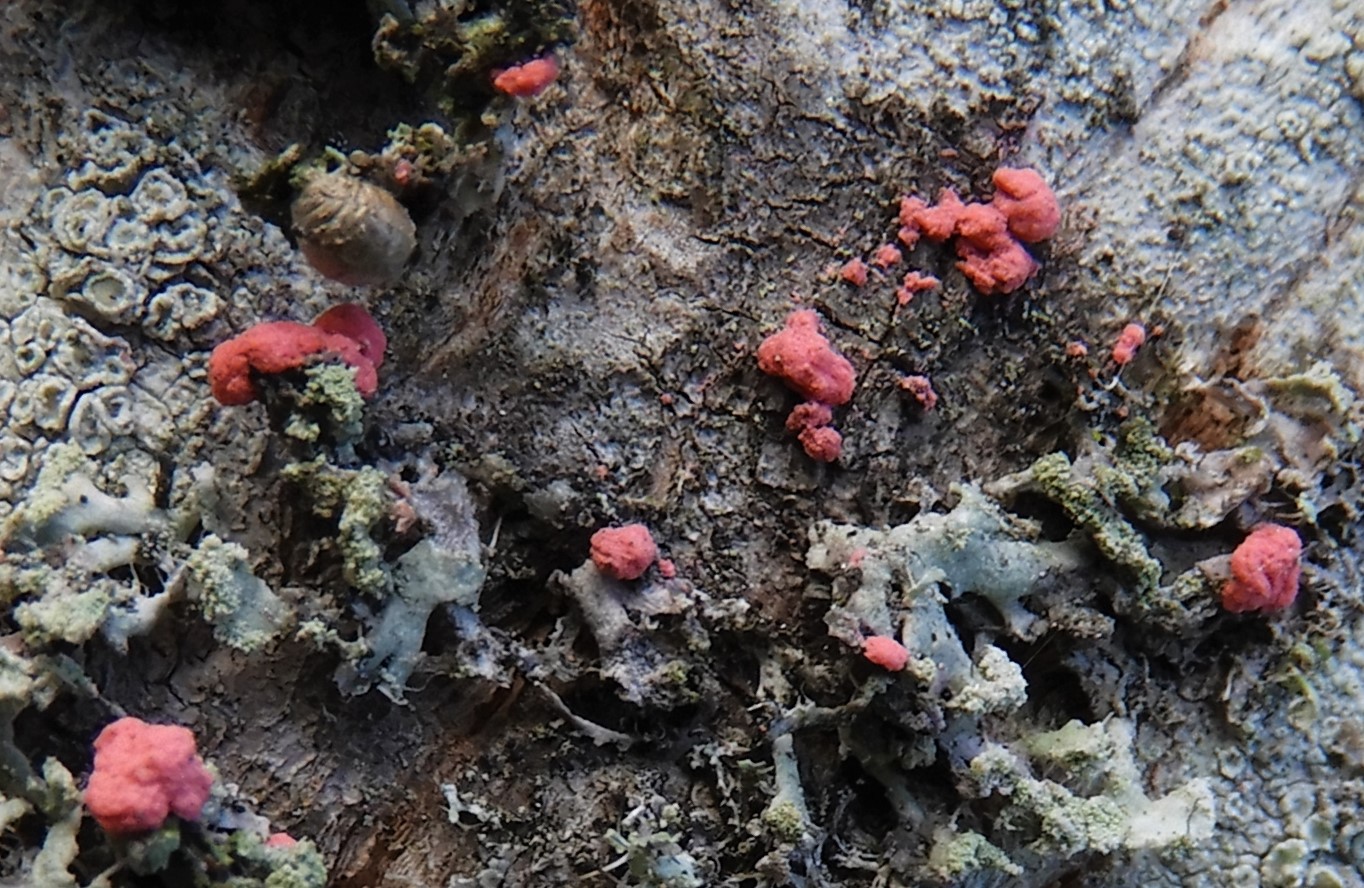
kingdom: Fungi
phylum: Ascomycota
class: Sordariomycetes
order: Hypocreales
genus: Illosporiopsis
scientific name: Illosporiopsis christiansenii
